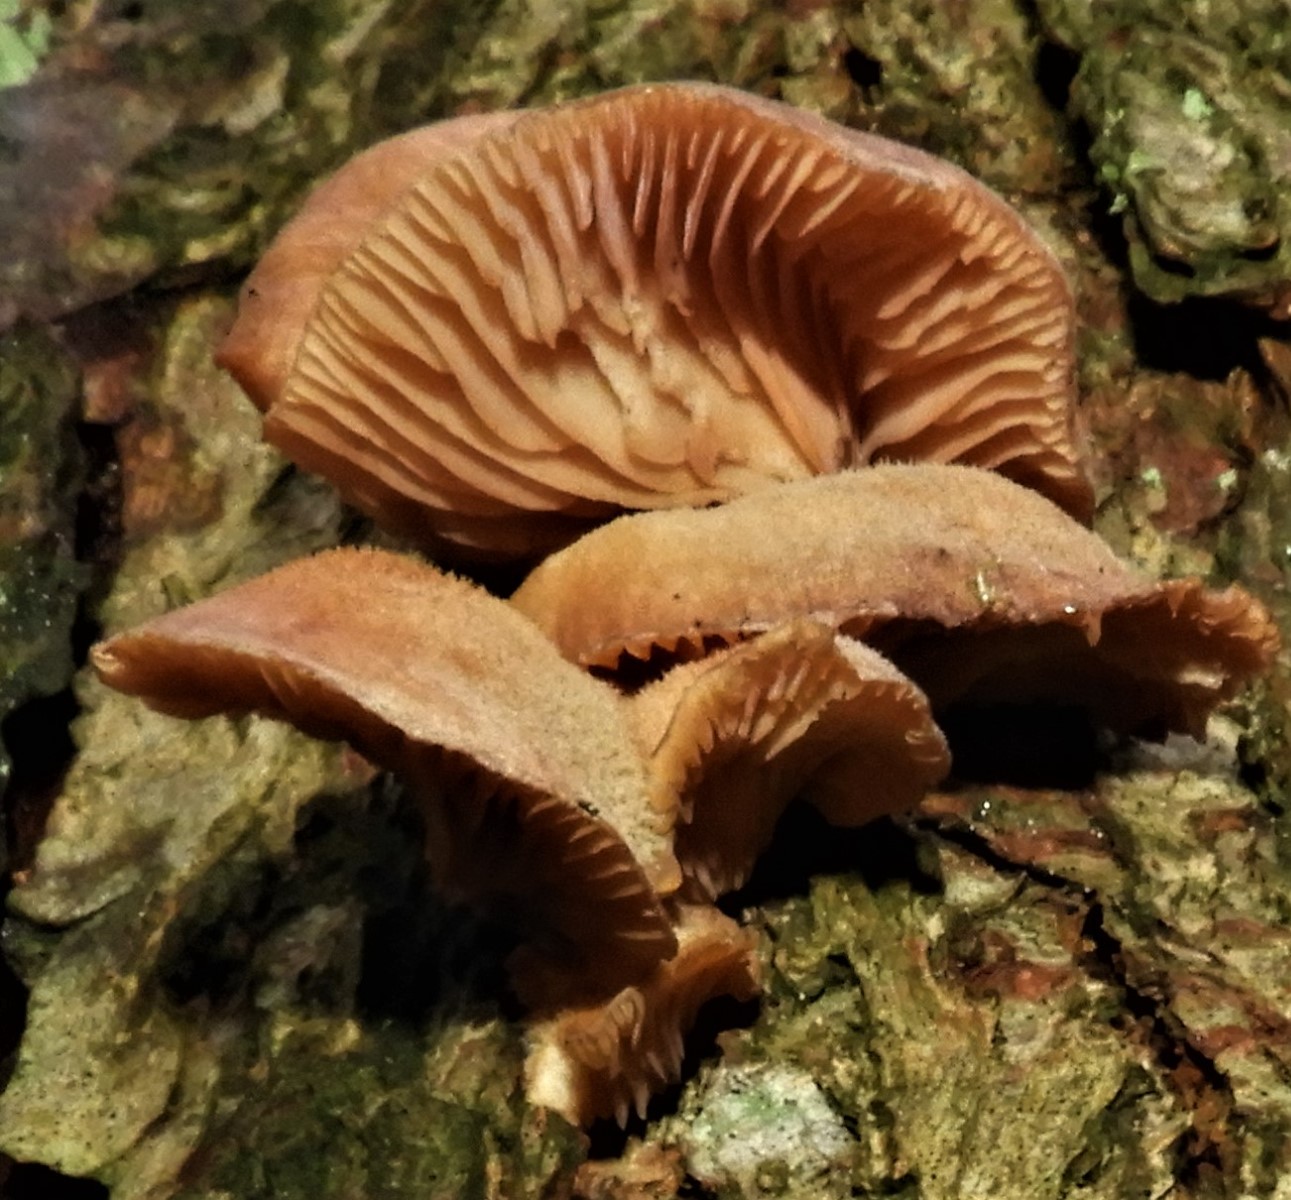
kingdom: Fungi
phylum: Basidiomycota
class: Agaricomycetes
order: Agaricales
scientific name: Agaricales
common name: champignonordenen
